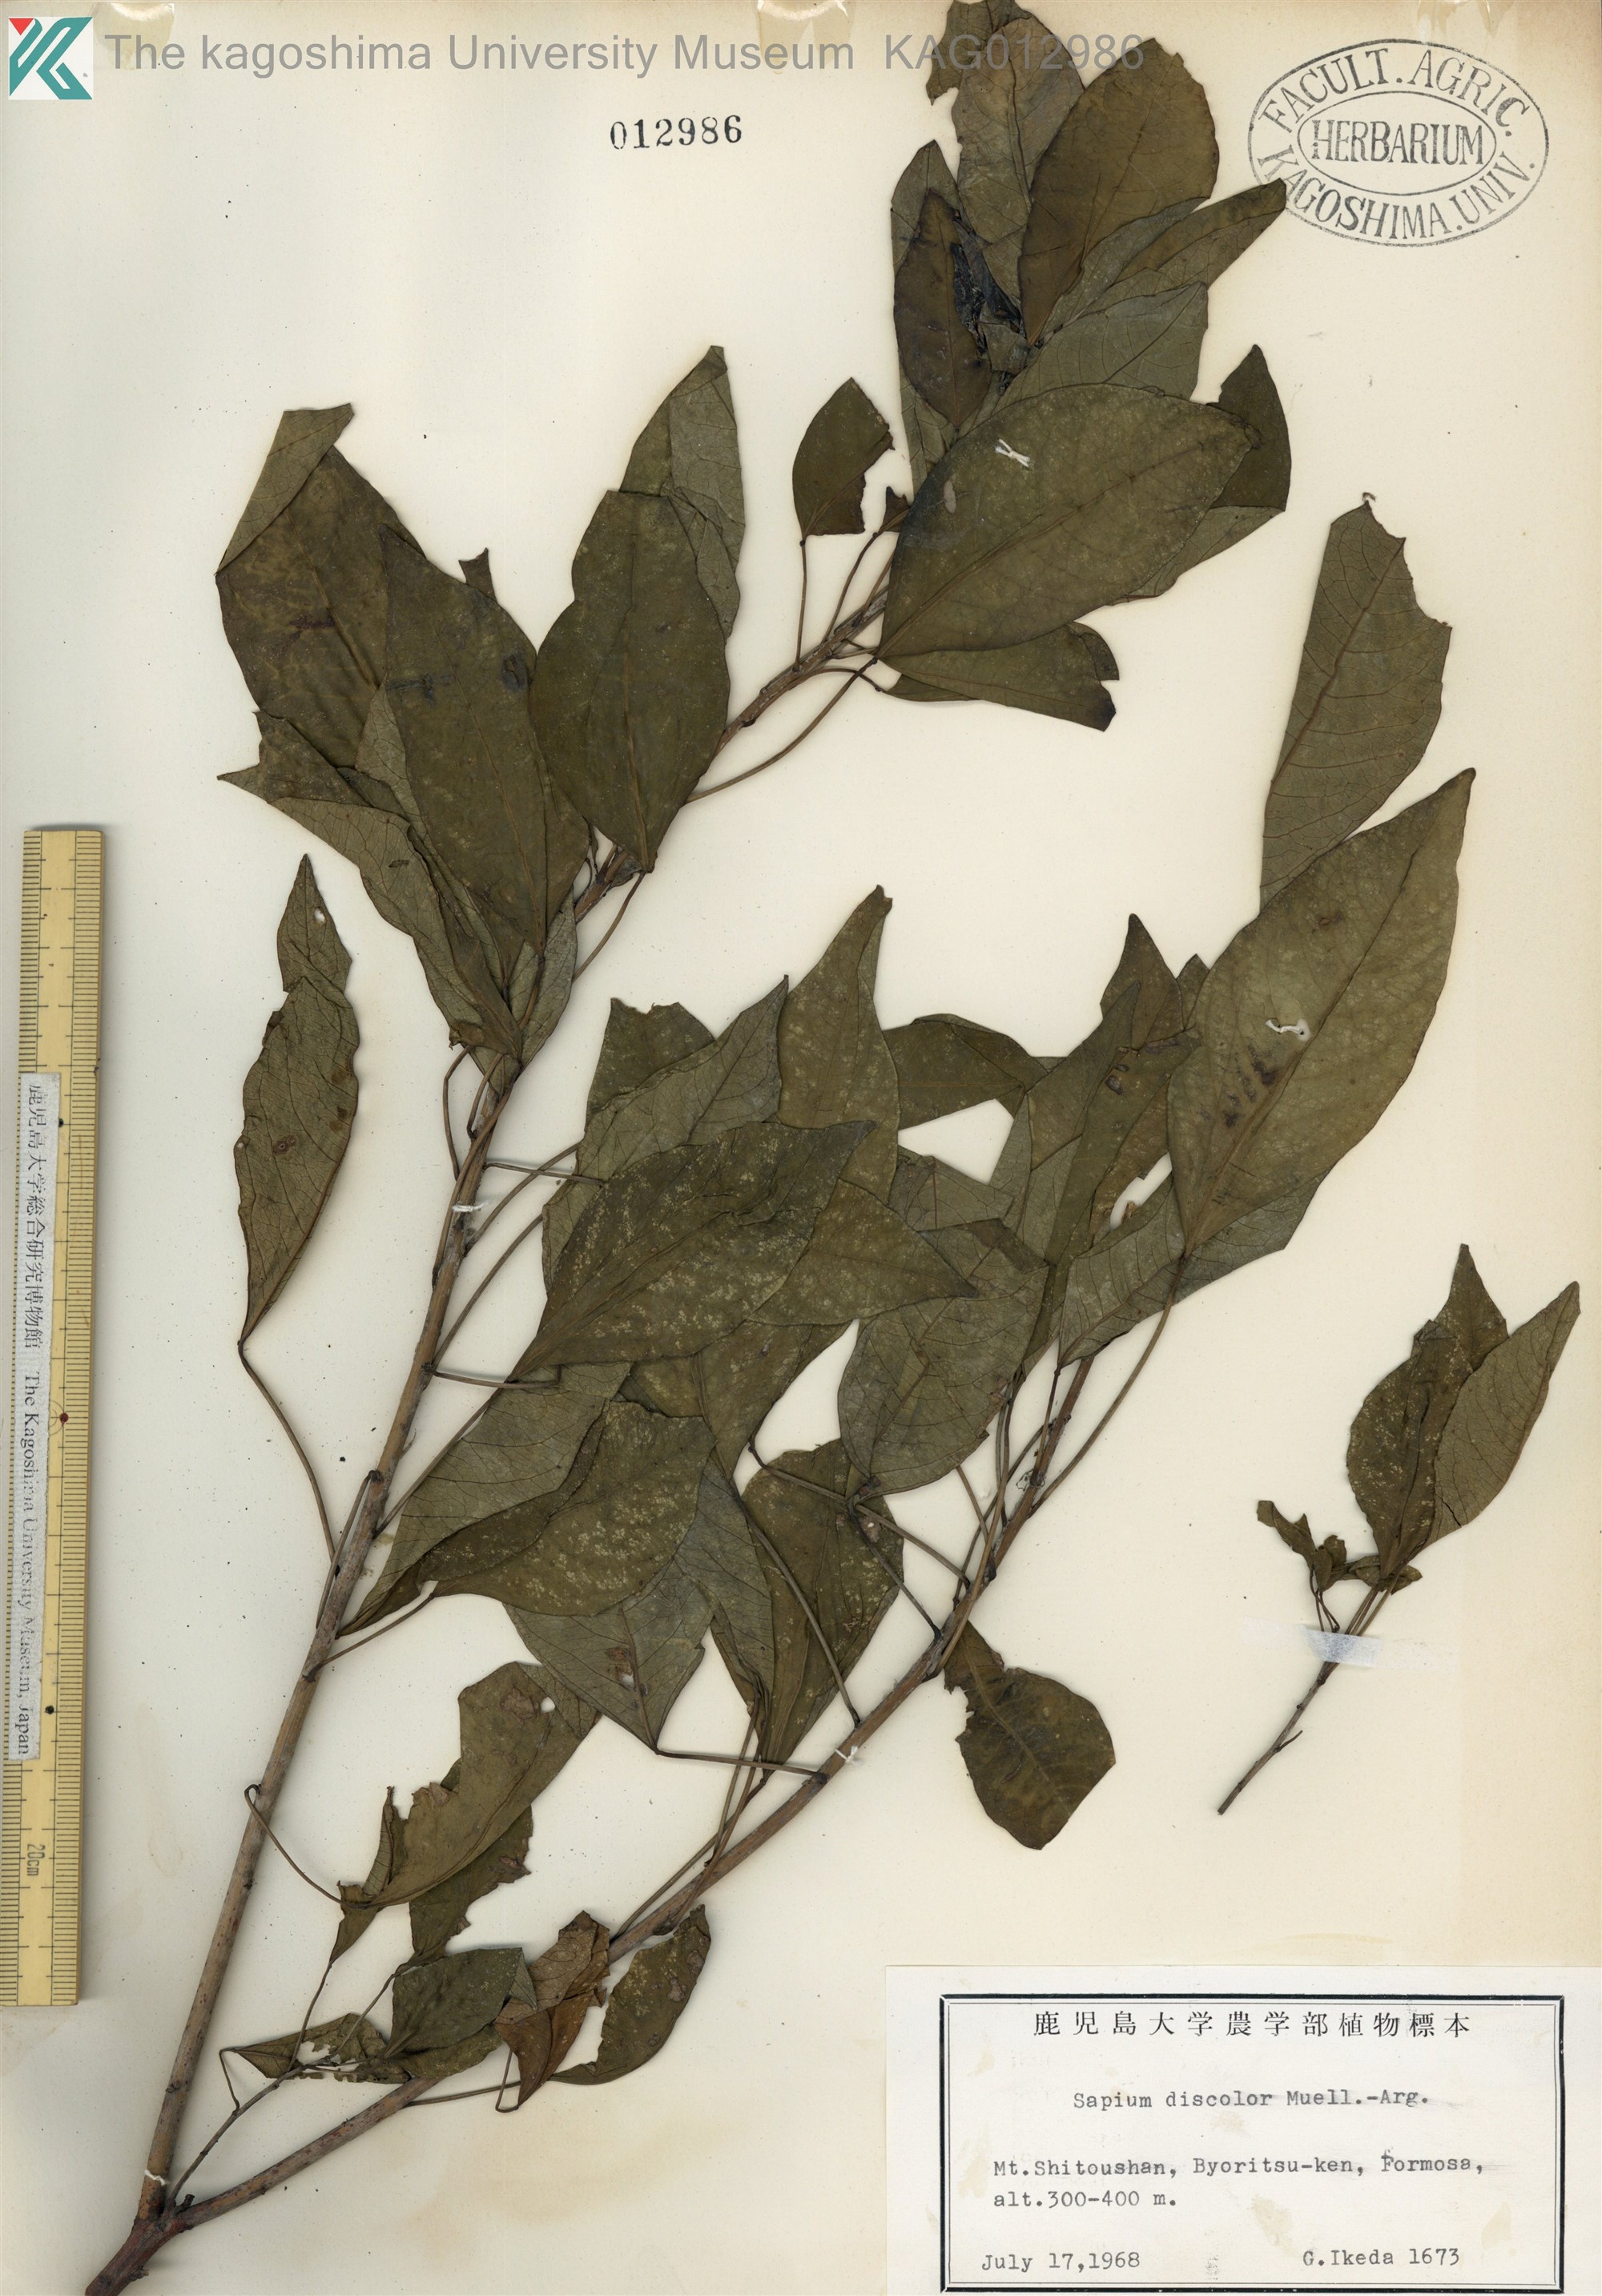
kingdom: Plantae
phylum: Tracheophyta
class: Magnoliopsida
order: Malpighiales
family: Euphorbiaceae
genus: Triadica
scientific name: Triadica cochinchinensis
